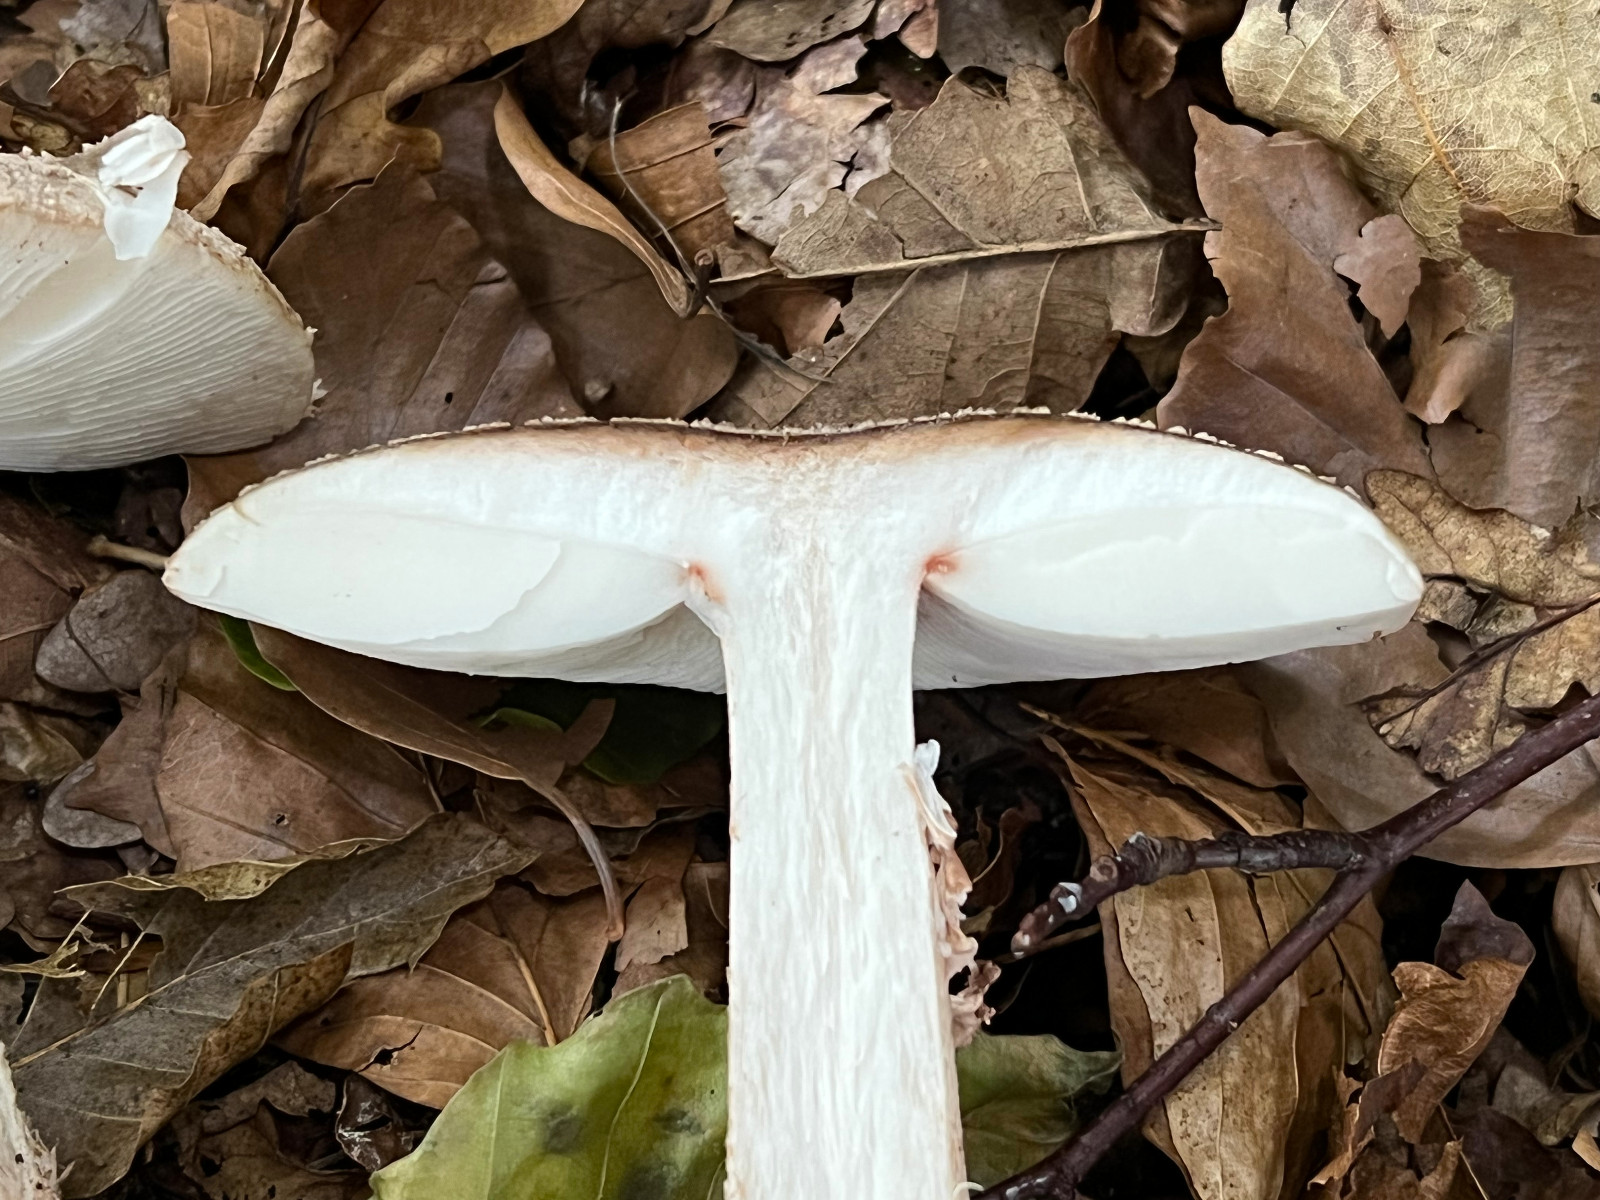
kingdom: Fungi
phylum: Basidiomycota
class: Agaricomycetes
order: Agaricales
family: Amanitaceae
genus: Amanita
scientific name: Amanita rubescens
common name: rødmende fluesvamp
